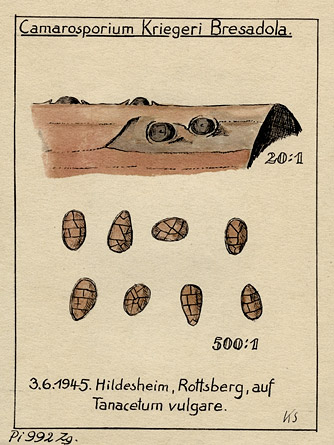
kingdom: Fungi
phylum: Ascomycota
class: Dothideomycetes
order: Pleosporales
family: Camarosporiaceae
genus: Camarosporium
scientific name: Camarosporium kriegeri
